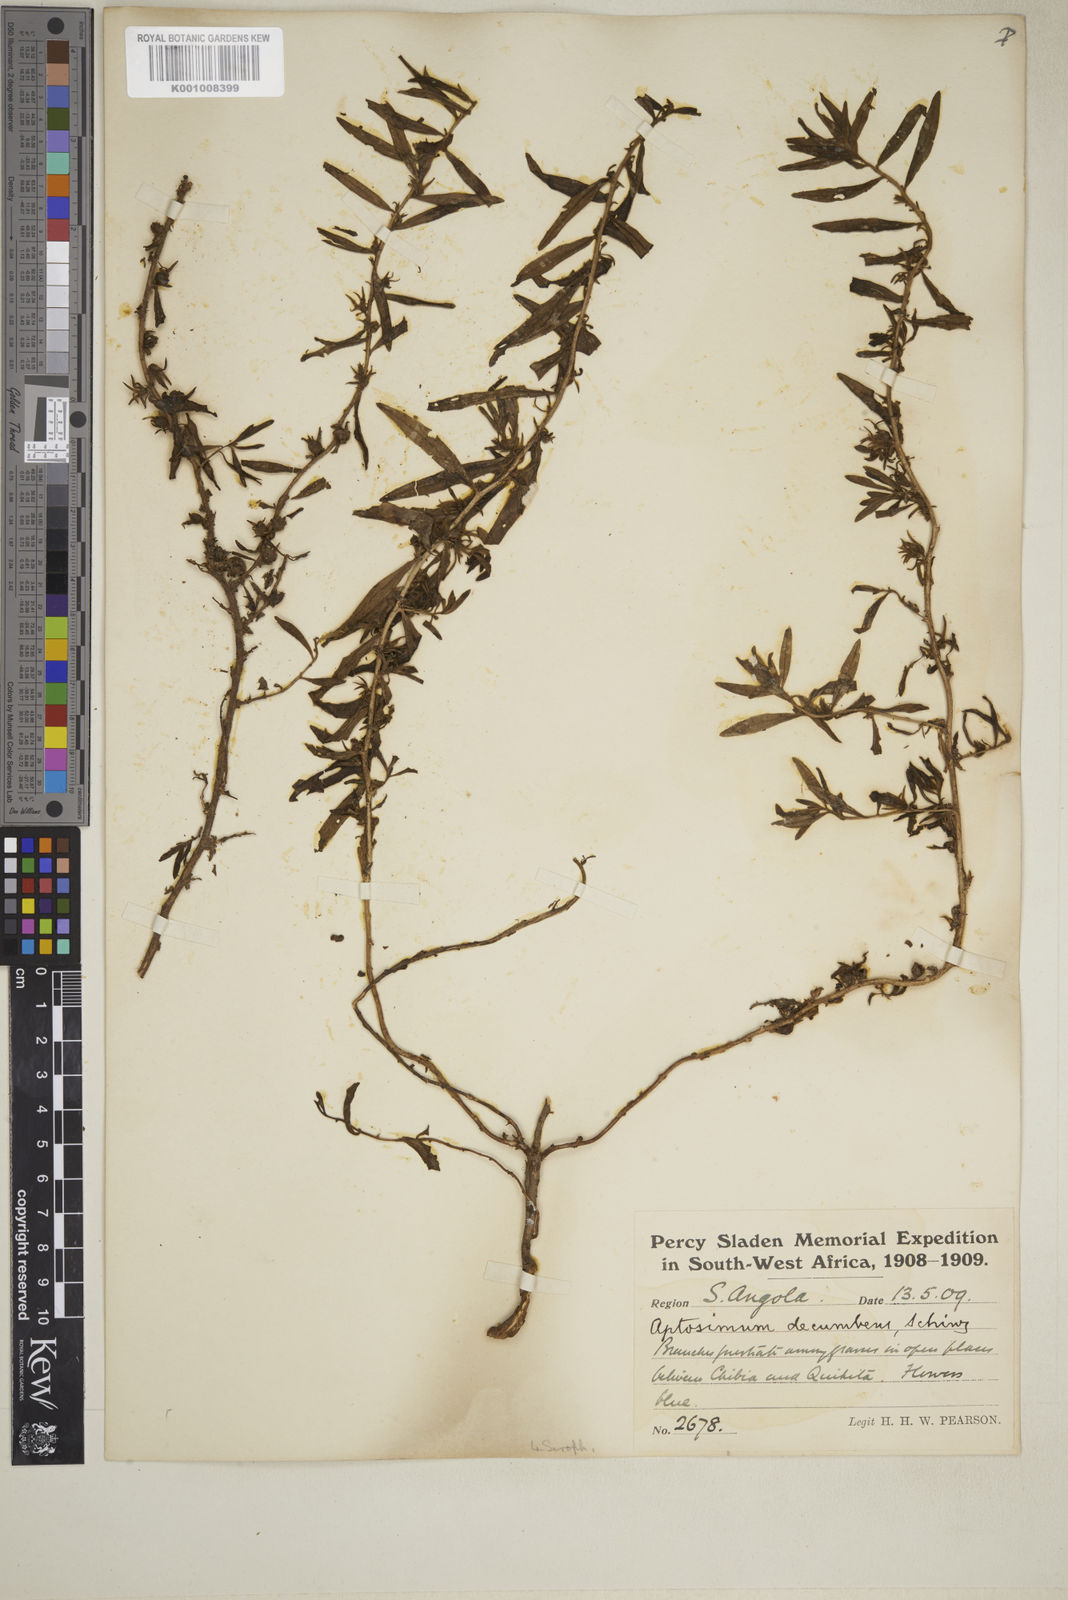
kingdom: Plantae
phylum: Tracheophyta
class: Magnoliopsida
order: Lamiales
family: Scrophulariaceae
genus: Aptosimum
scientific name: Aptosimum decumbens
